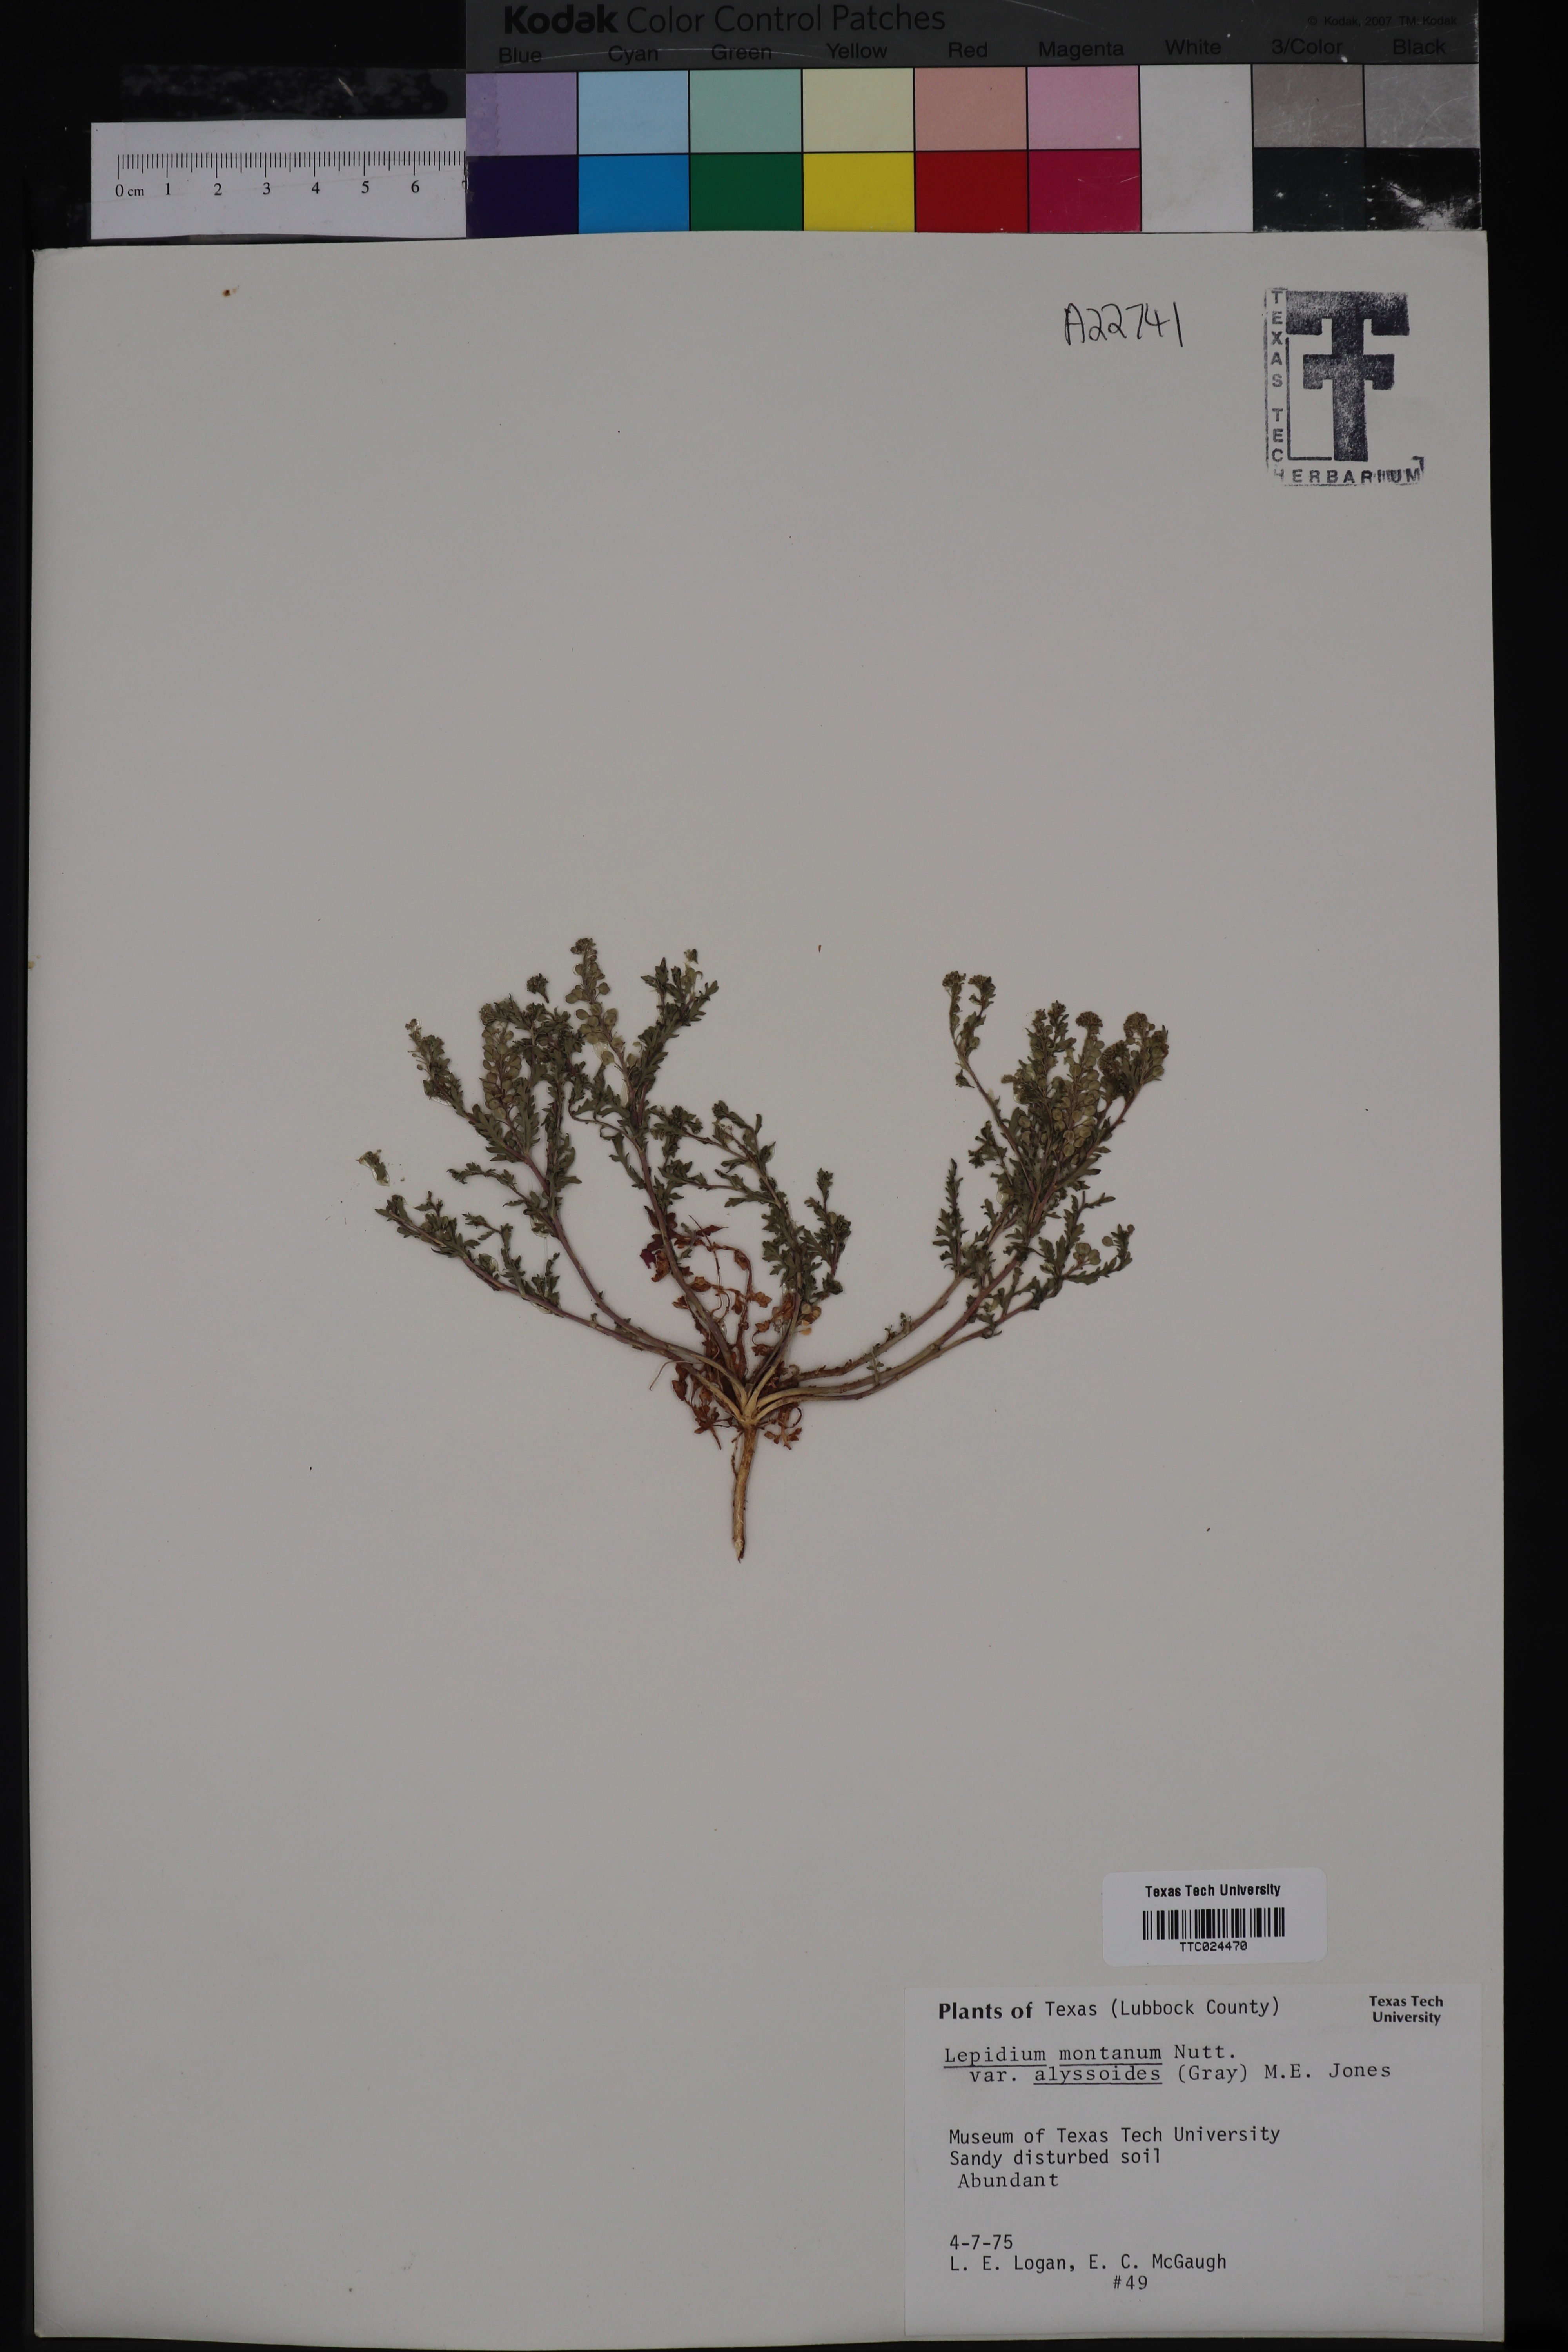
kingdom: Plantae
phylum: Tracheophyta
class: Magnoliopsida
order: Brassicales
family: Brassicaceae
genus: Lepidium
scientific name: Lepidium alyssoides
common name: Mesa pepperweed
